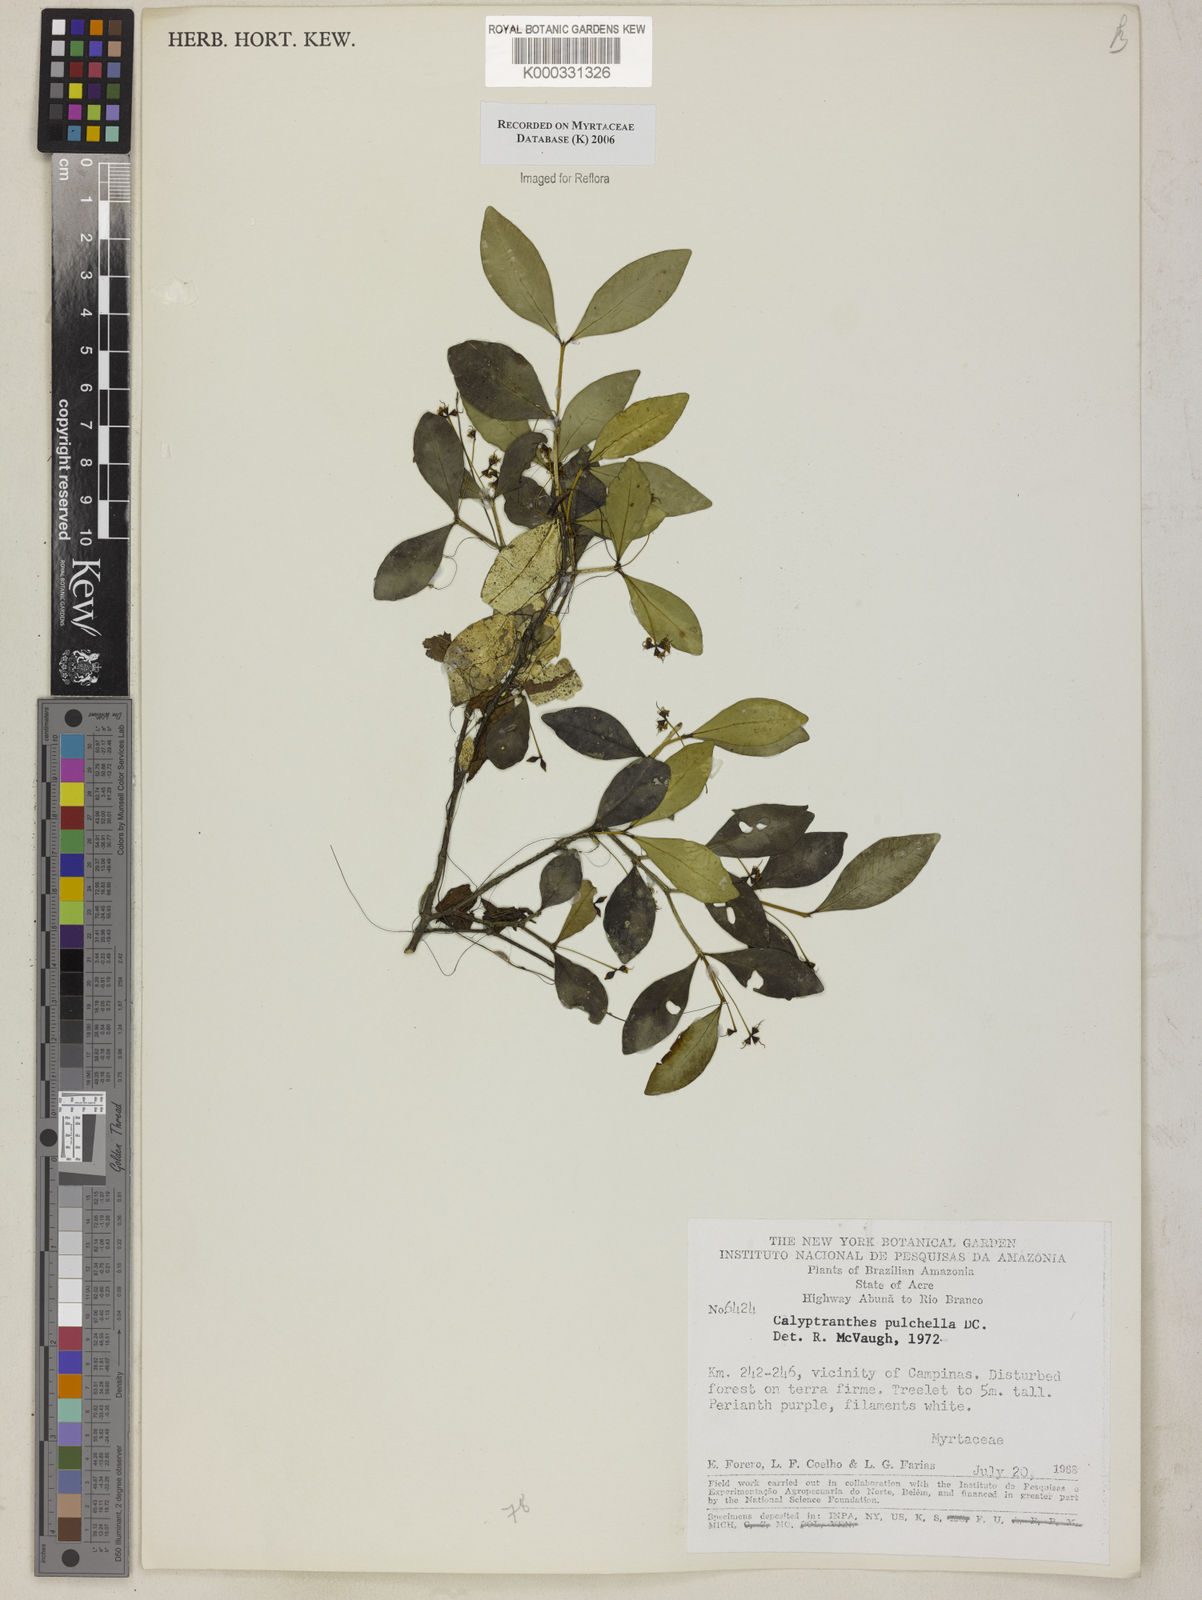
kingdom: Plantae
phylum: Tracheophyta
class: Magnoliopsida
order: Myrtales
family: Myrtaceae
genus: Myrcia
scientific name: Myrcia pulchella
